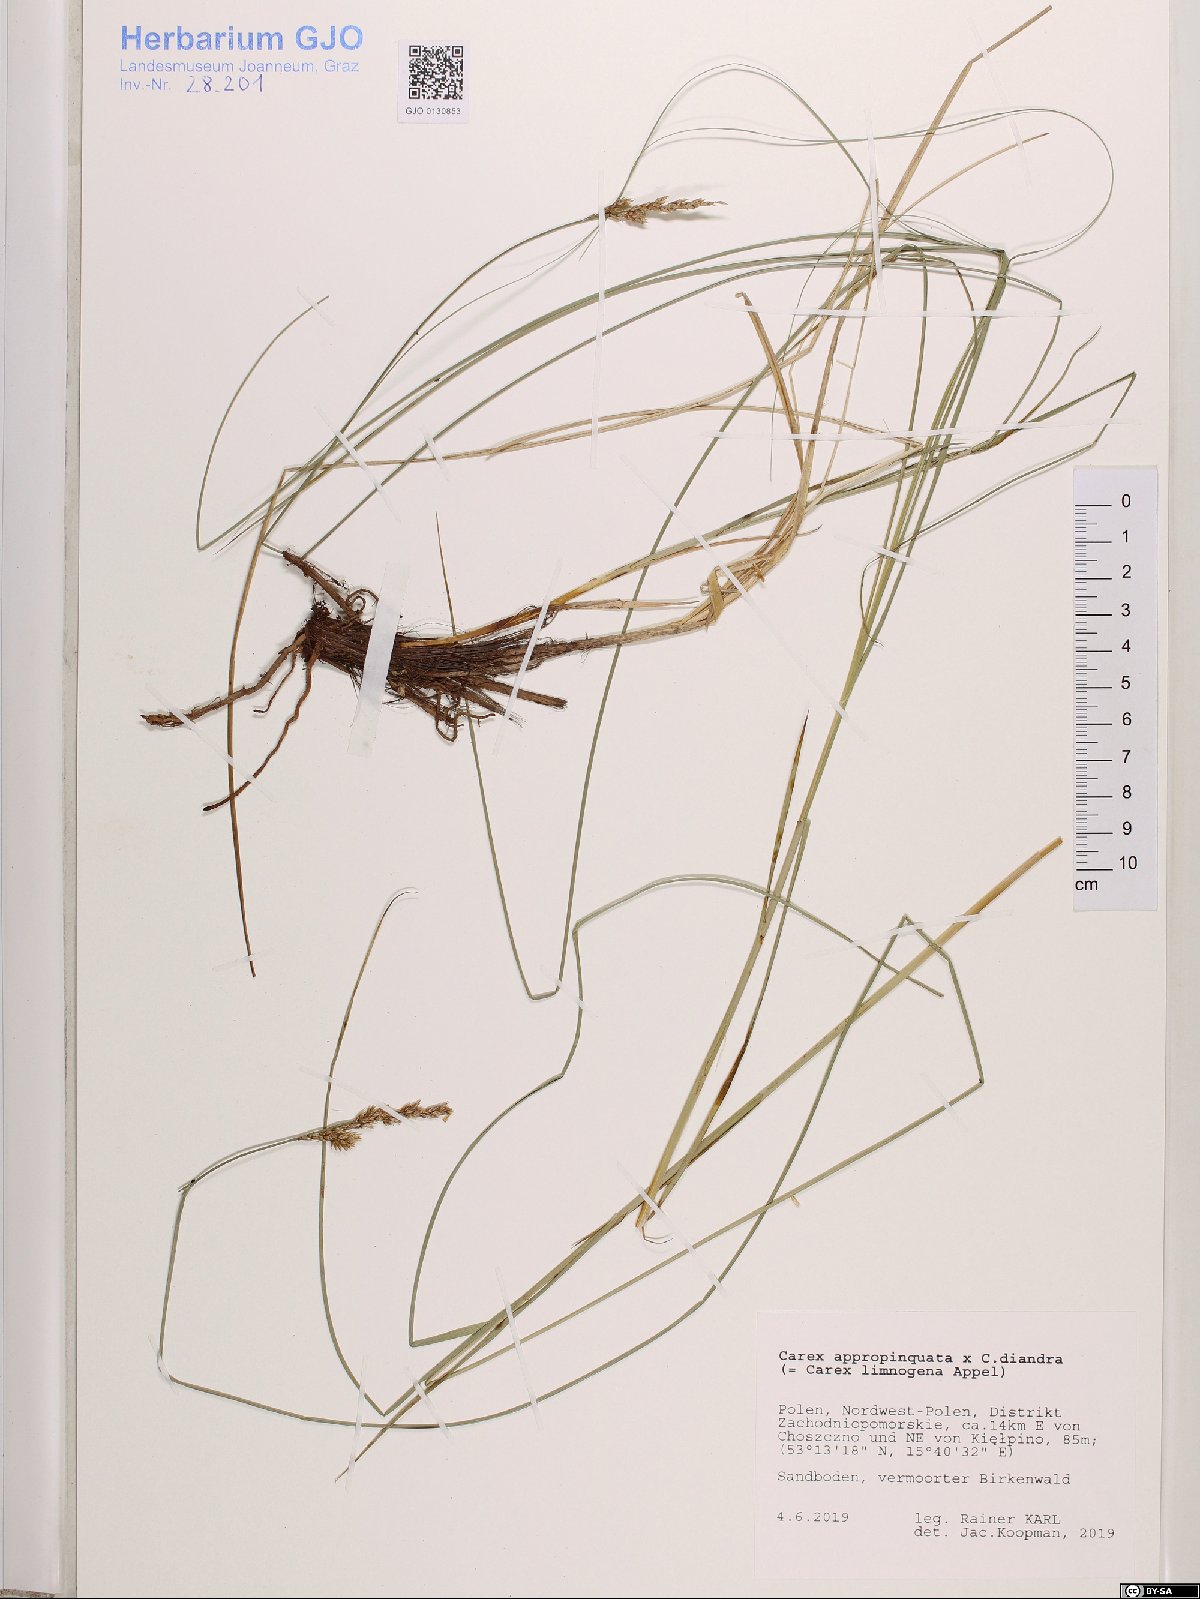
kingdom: Plantae
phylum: Tracheophyta
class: Liliopsida
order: Poales
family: Cyperaceae
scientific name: Cyperaceae
